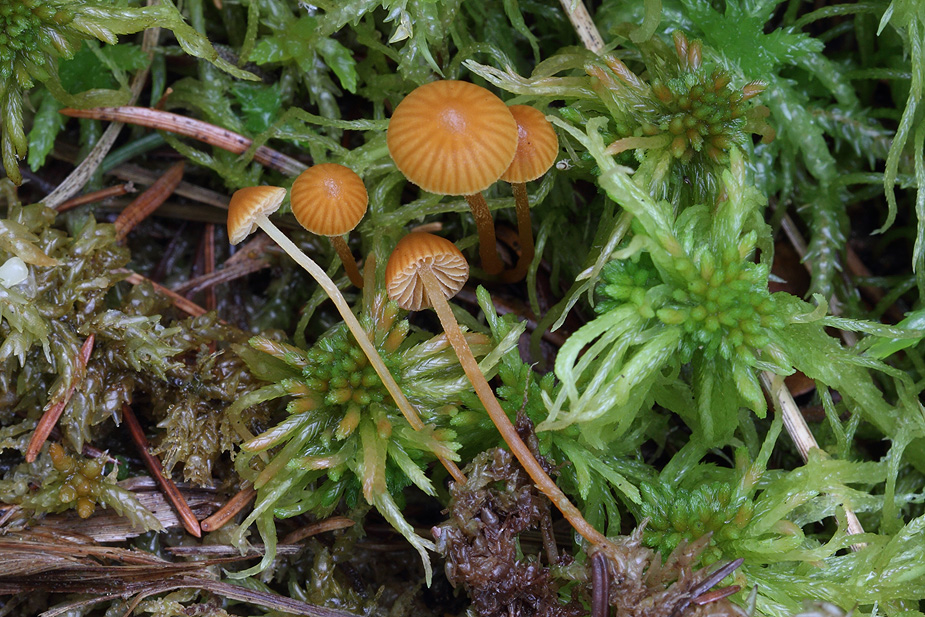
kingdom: Fungi
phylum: Basidiomycota
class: Agaricomycetes
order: Agaricales
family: Hymenogastraceae
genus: Galerina
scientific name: Galerina sphagnicola
